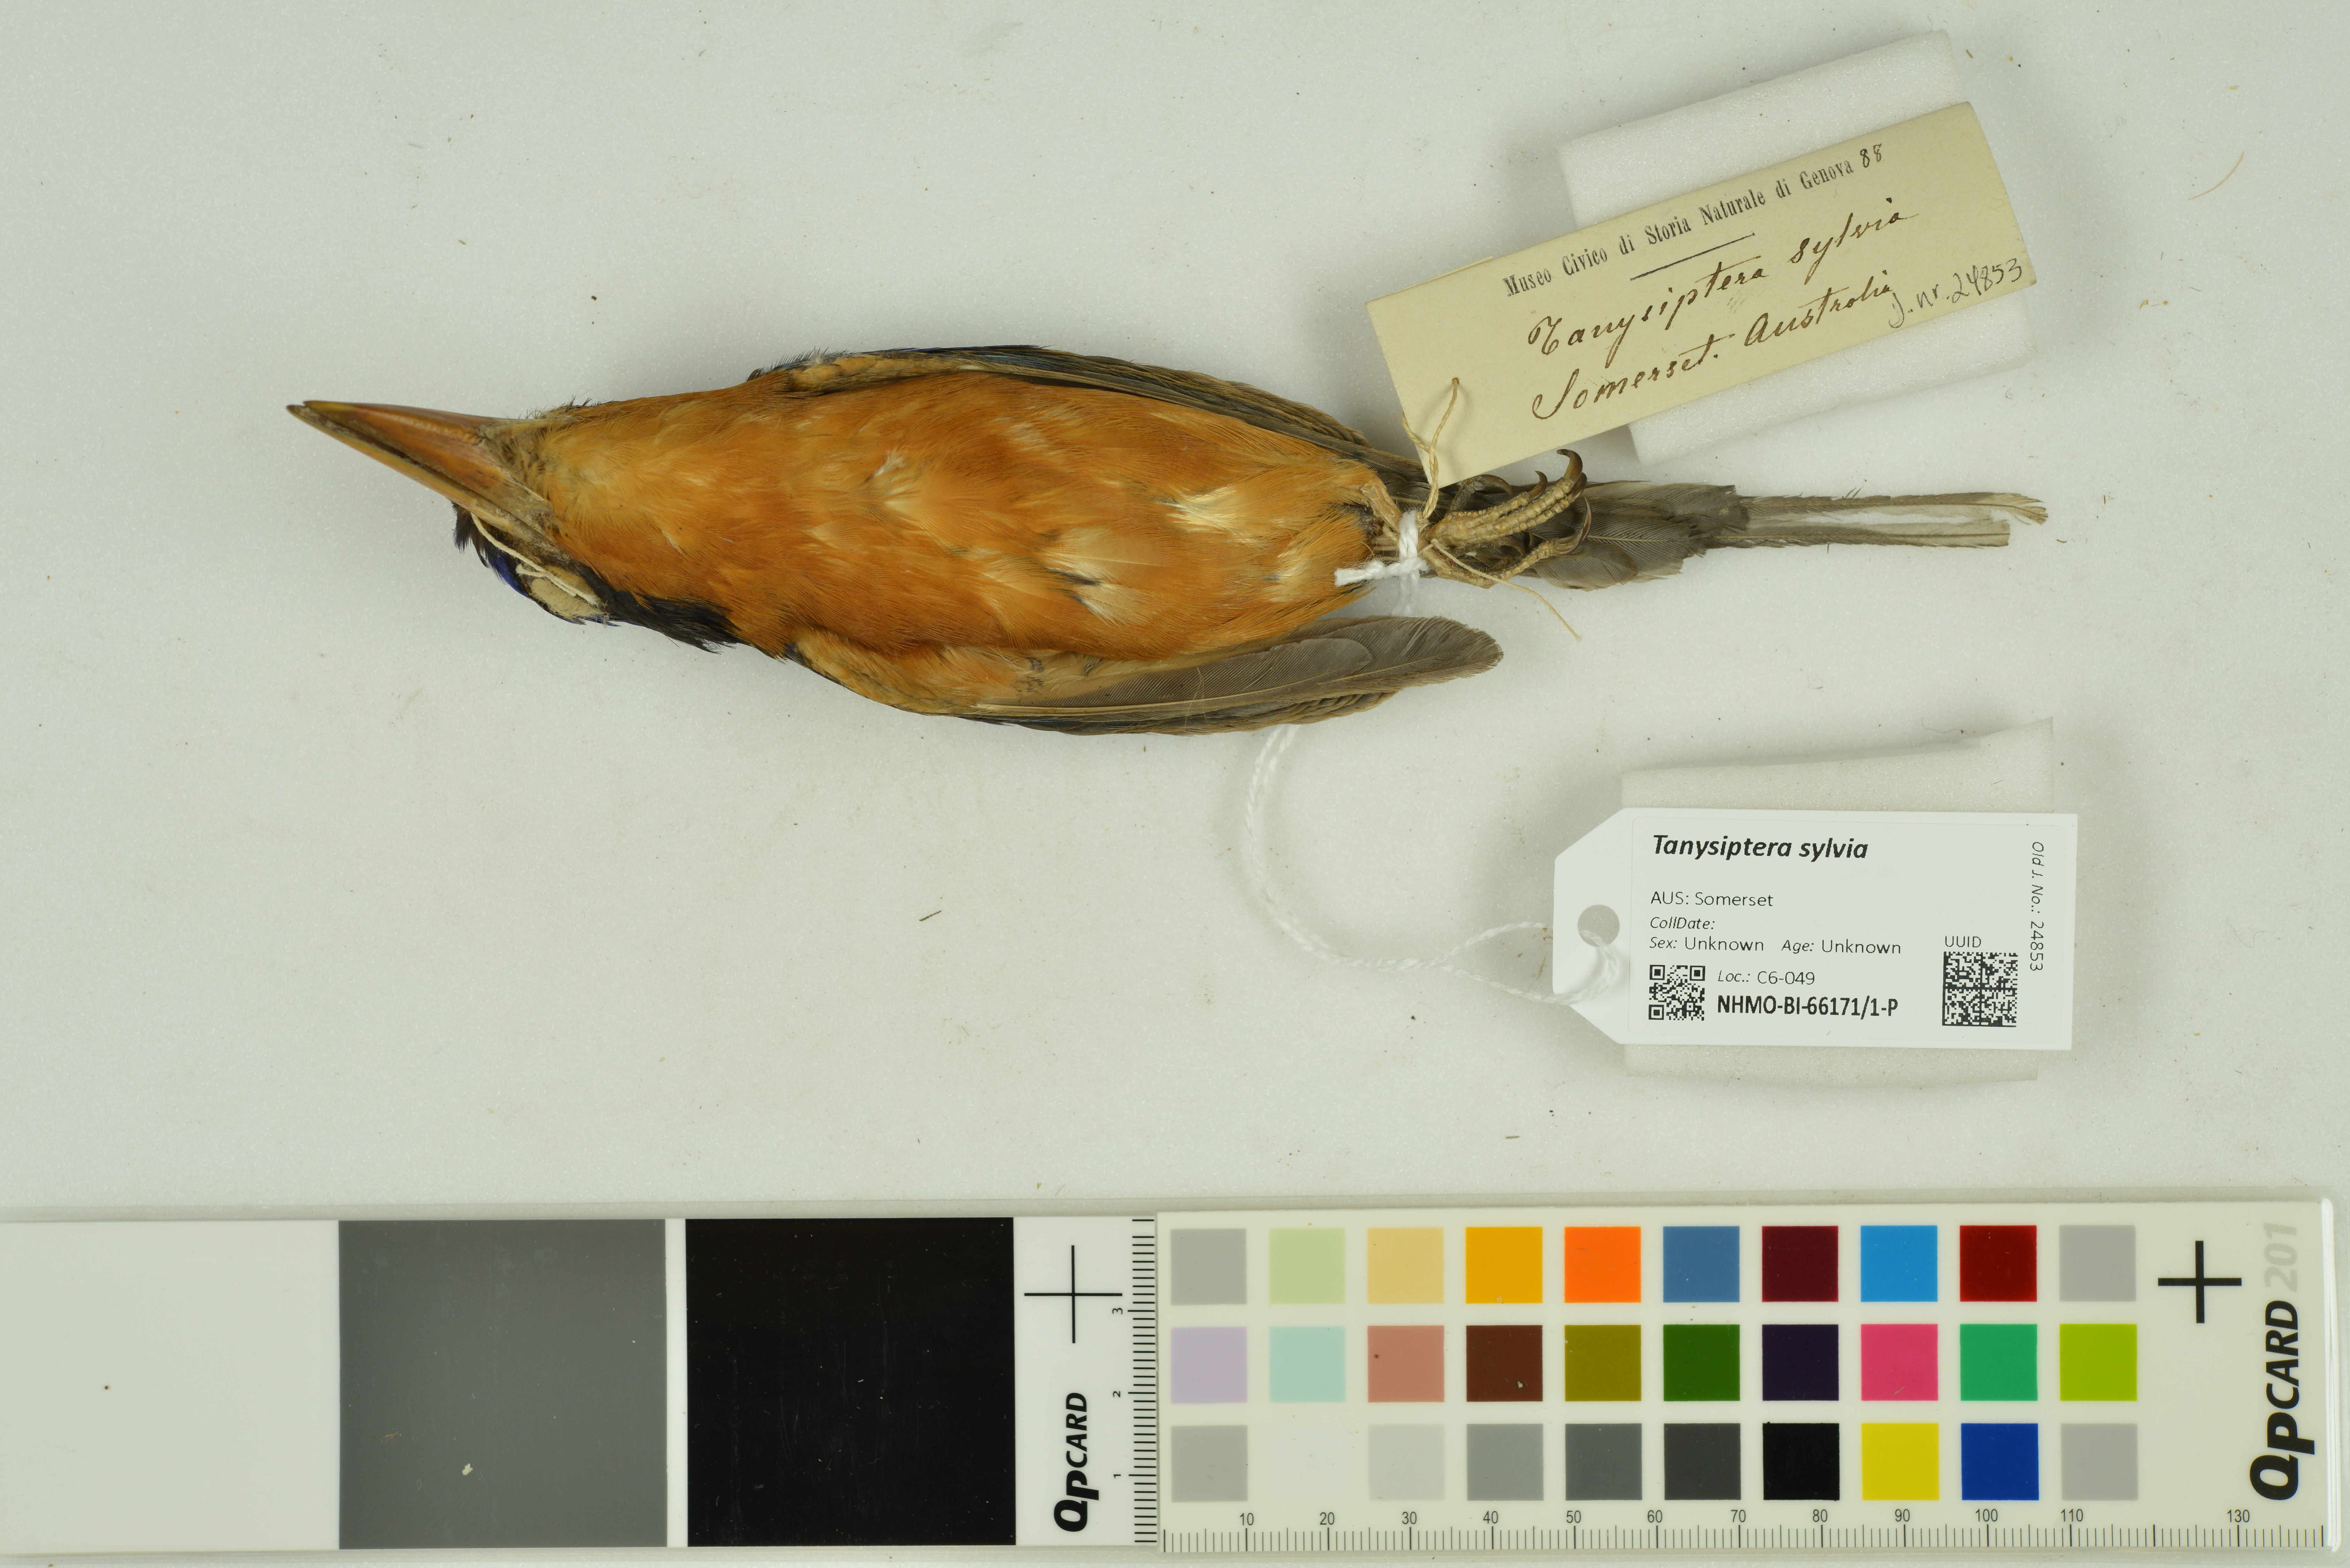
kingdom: Animalia
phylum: Chordata
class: Aves
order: Coraciiformes
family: Alcedinidae
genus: Tanysiptera
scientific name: Tanysiptera sylvia
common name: Buff-breasted paradise kingfisher
